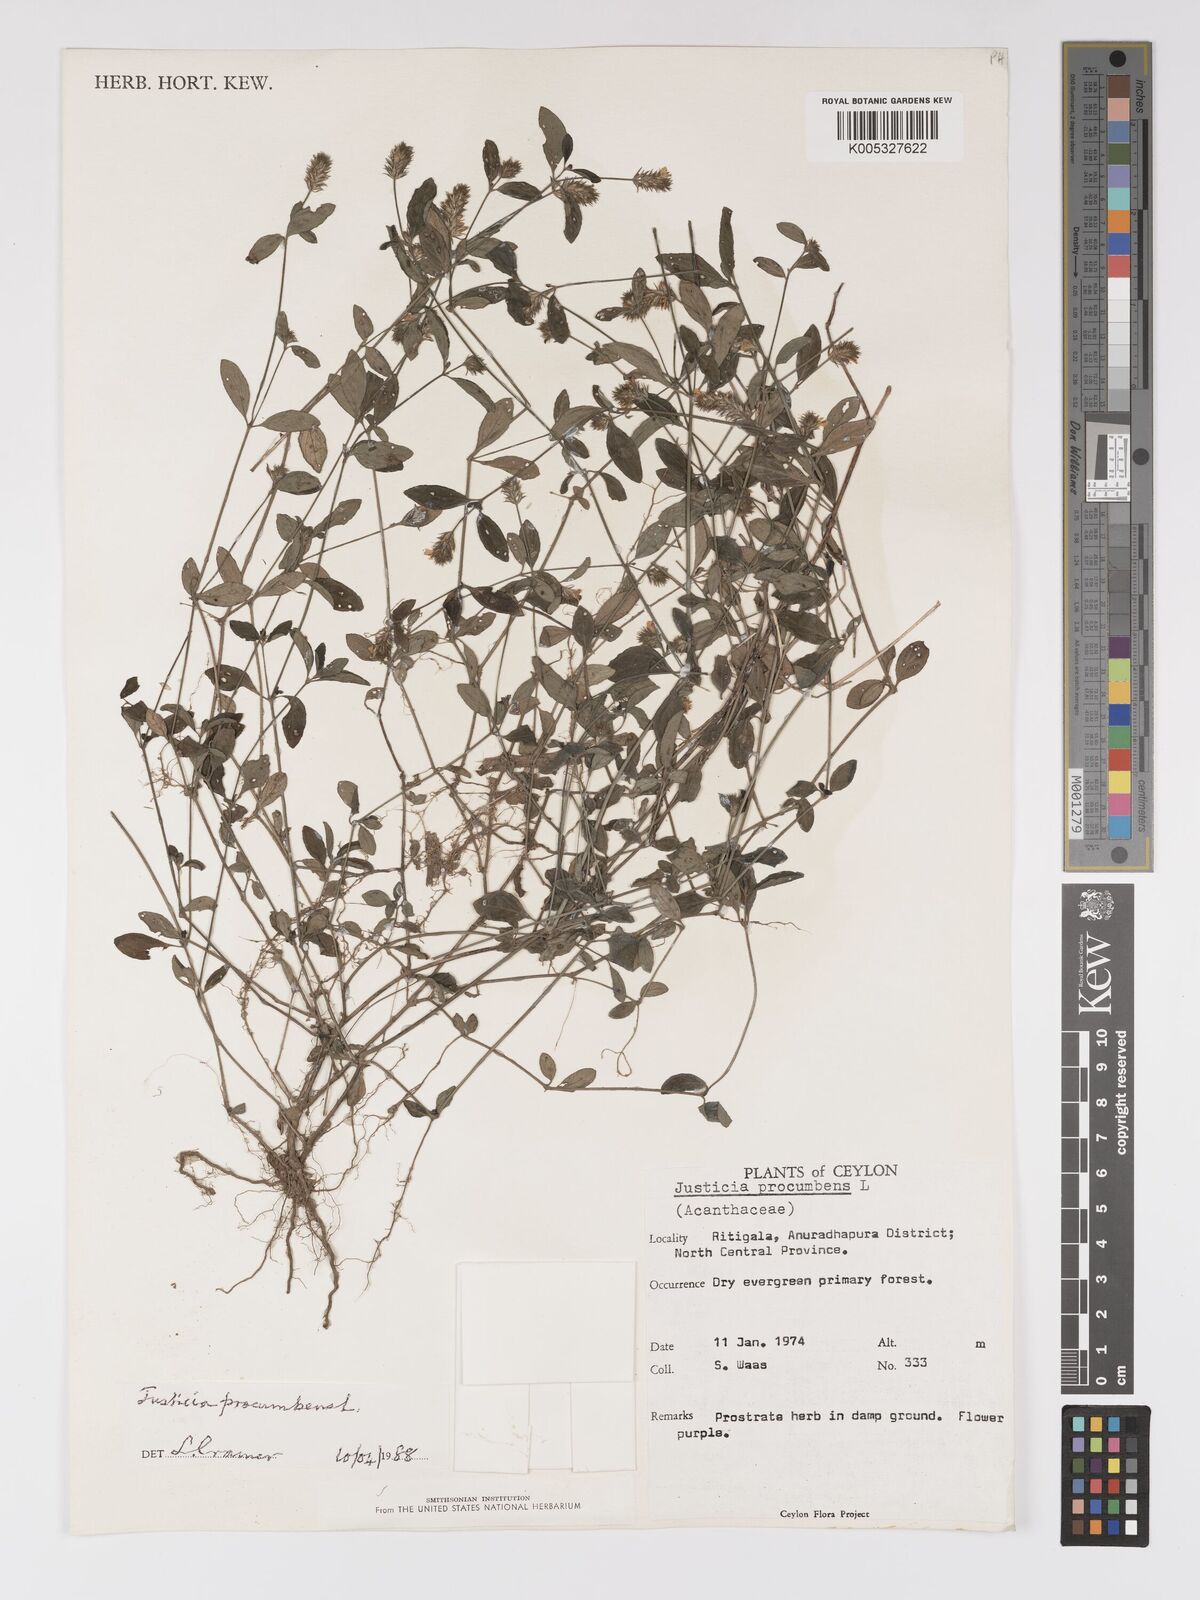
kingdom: Plantae
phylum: Tracheophyta
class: Magnoliopsida
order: Lamiales
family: Acanthaceae
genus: Rostellularia
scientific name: Rostellularia procumbens
